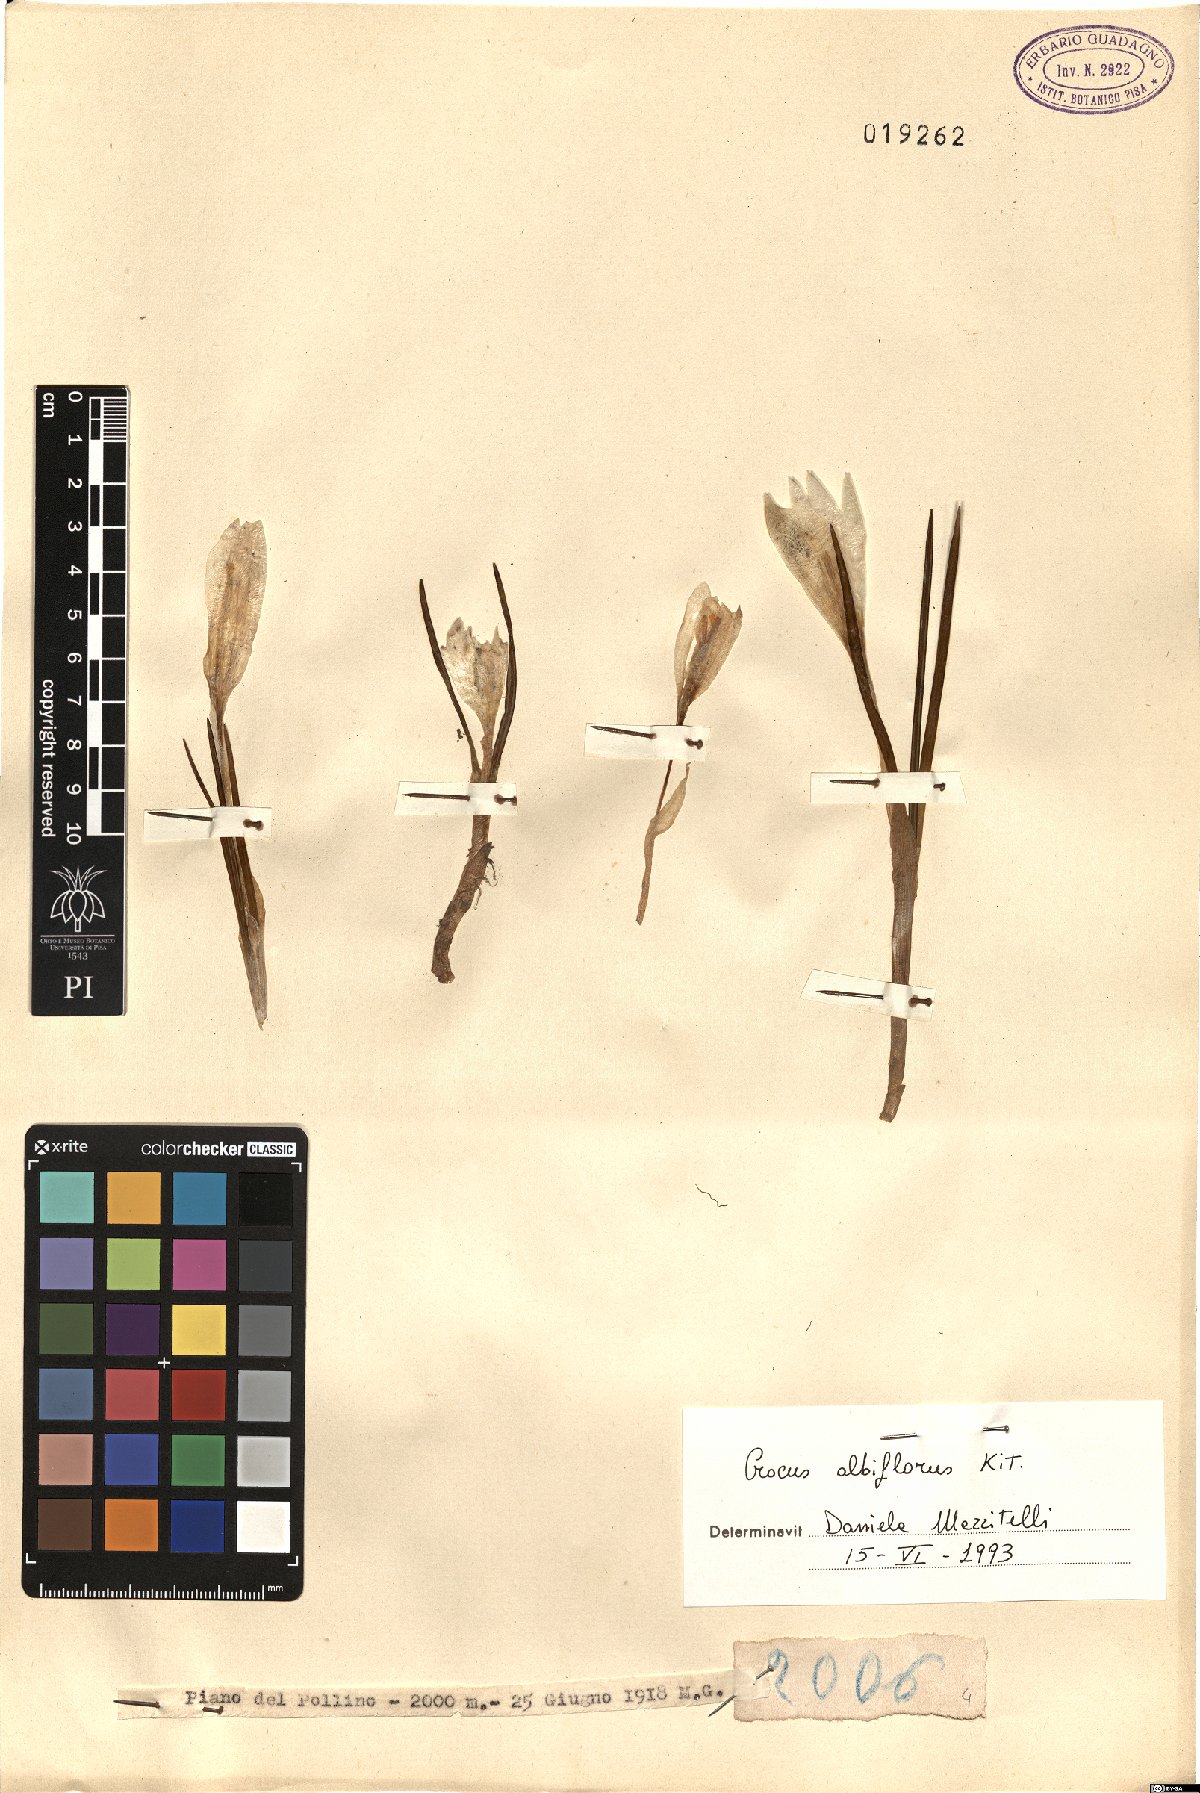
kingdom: Plantae
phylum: Tracheophyta
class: Liliopsida
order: Asparagales
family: Iridaceae
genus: Crocus
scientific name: Crocus neapolitanus
